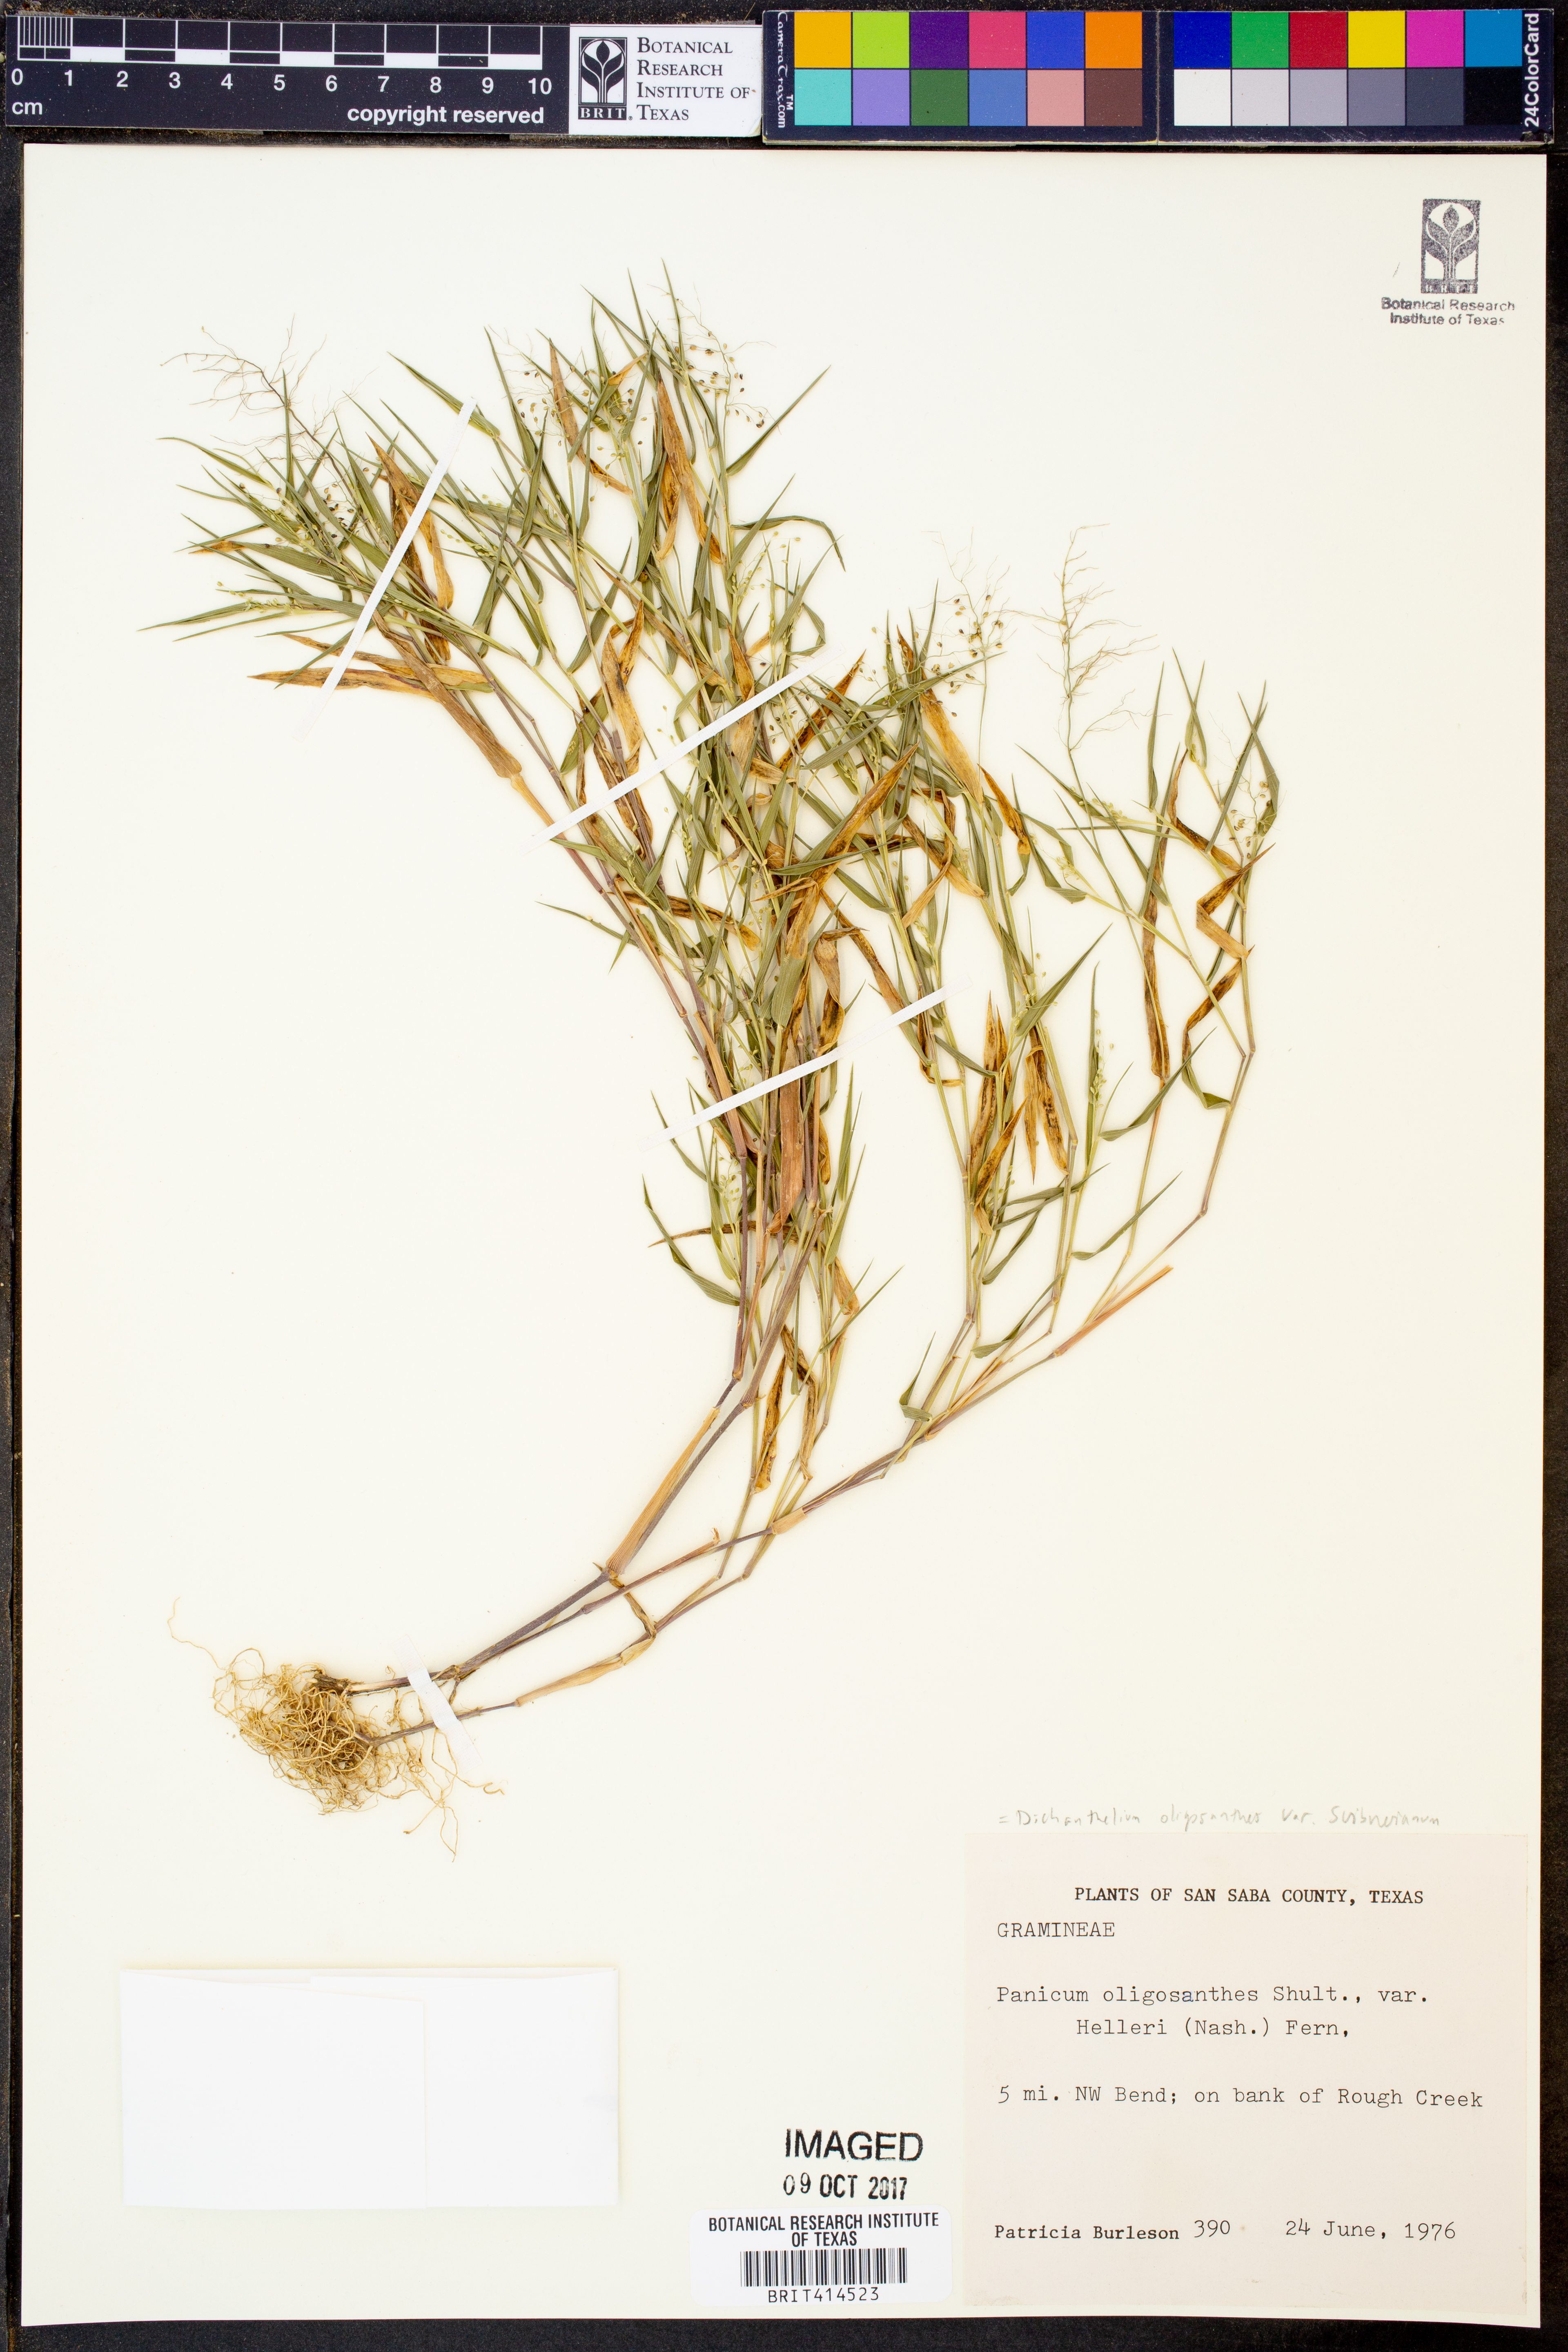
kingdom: Plantae
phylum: Tracheophyta
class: Liliopsida
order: Poales
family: Poaceae
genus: Dichanthelium
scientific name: Dichanthelium oligosanthes
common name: Few-anther obscuregrass
